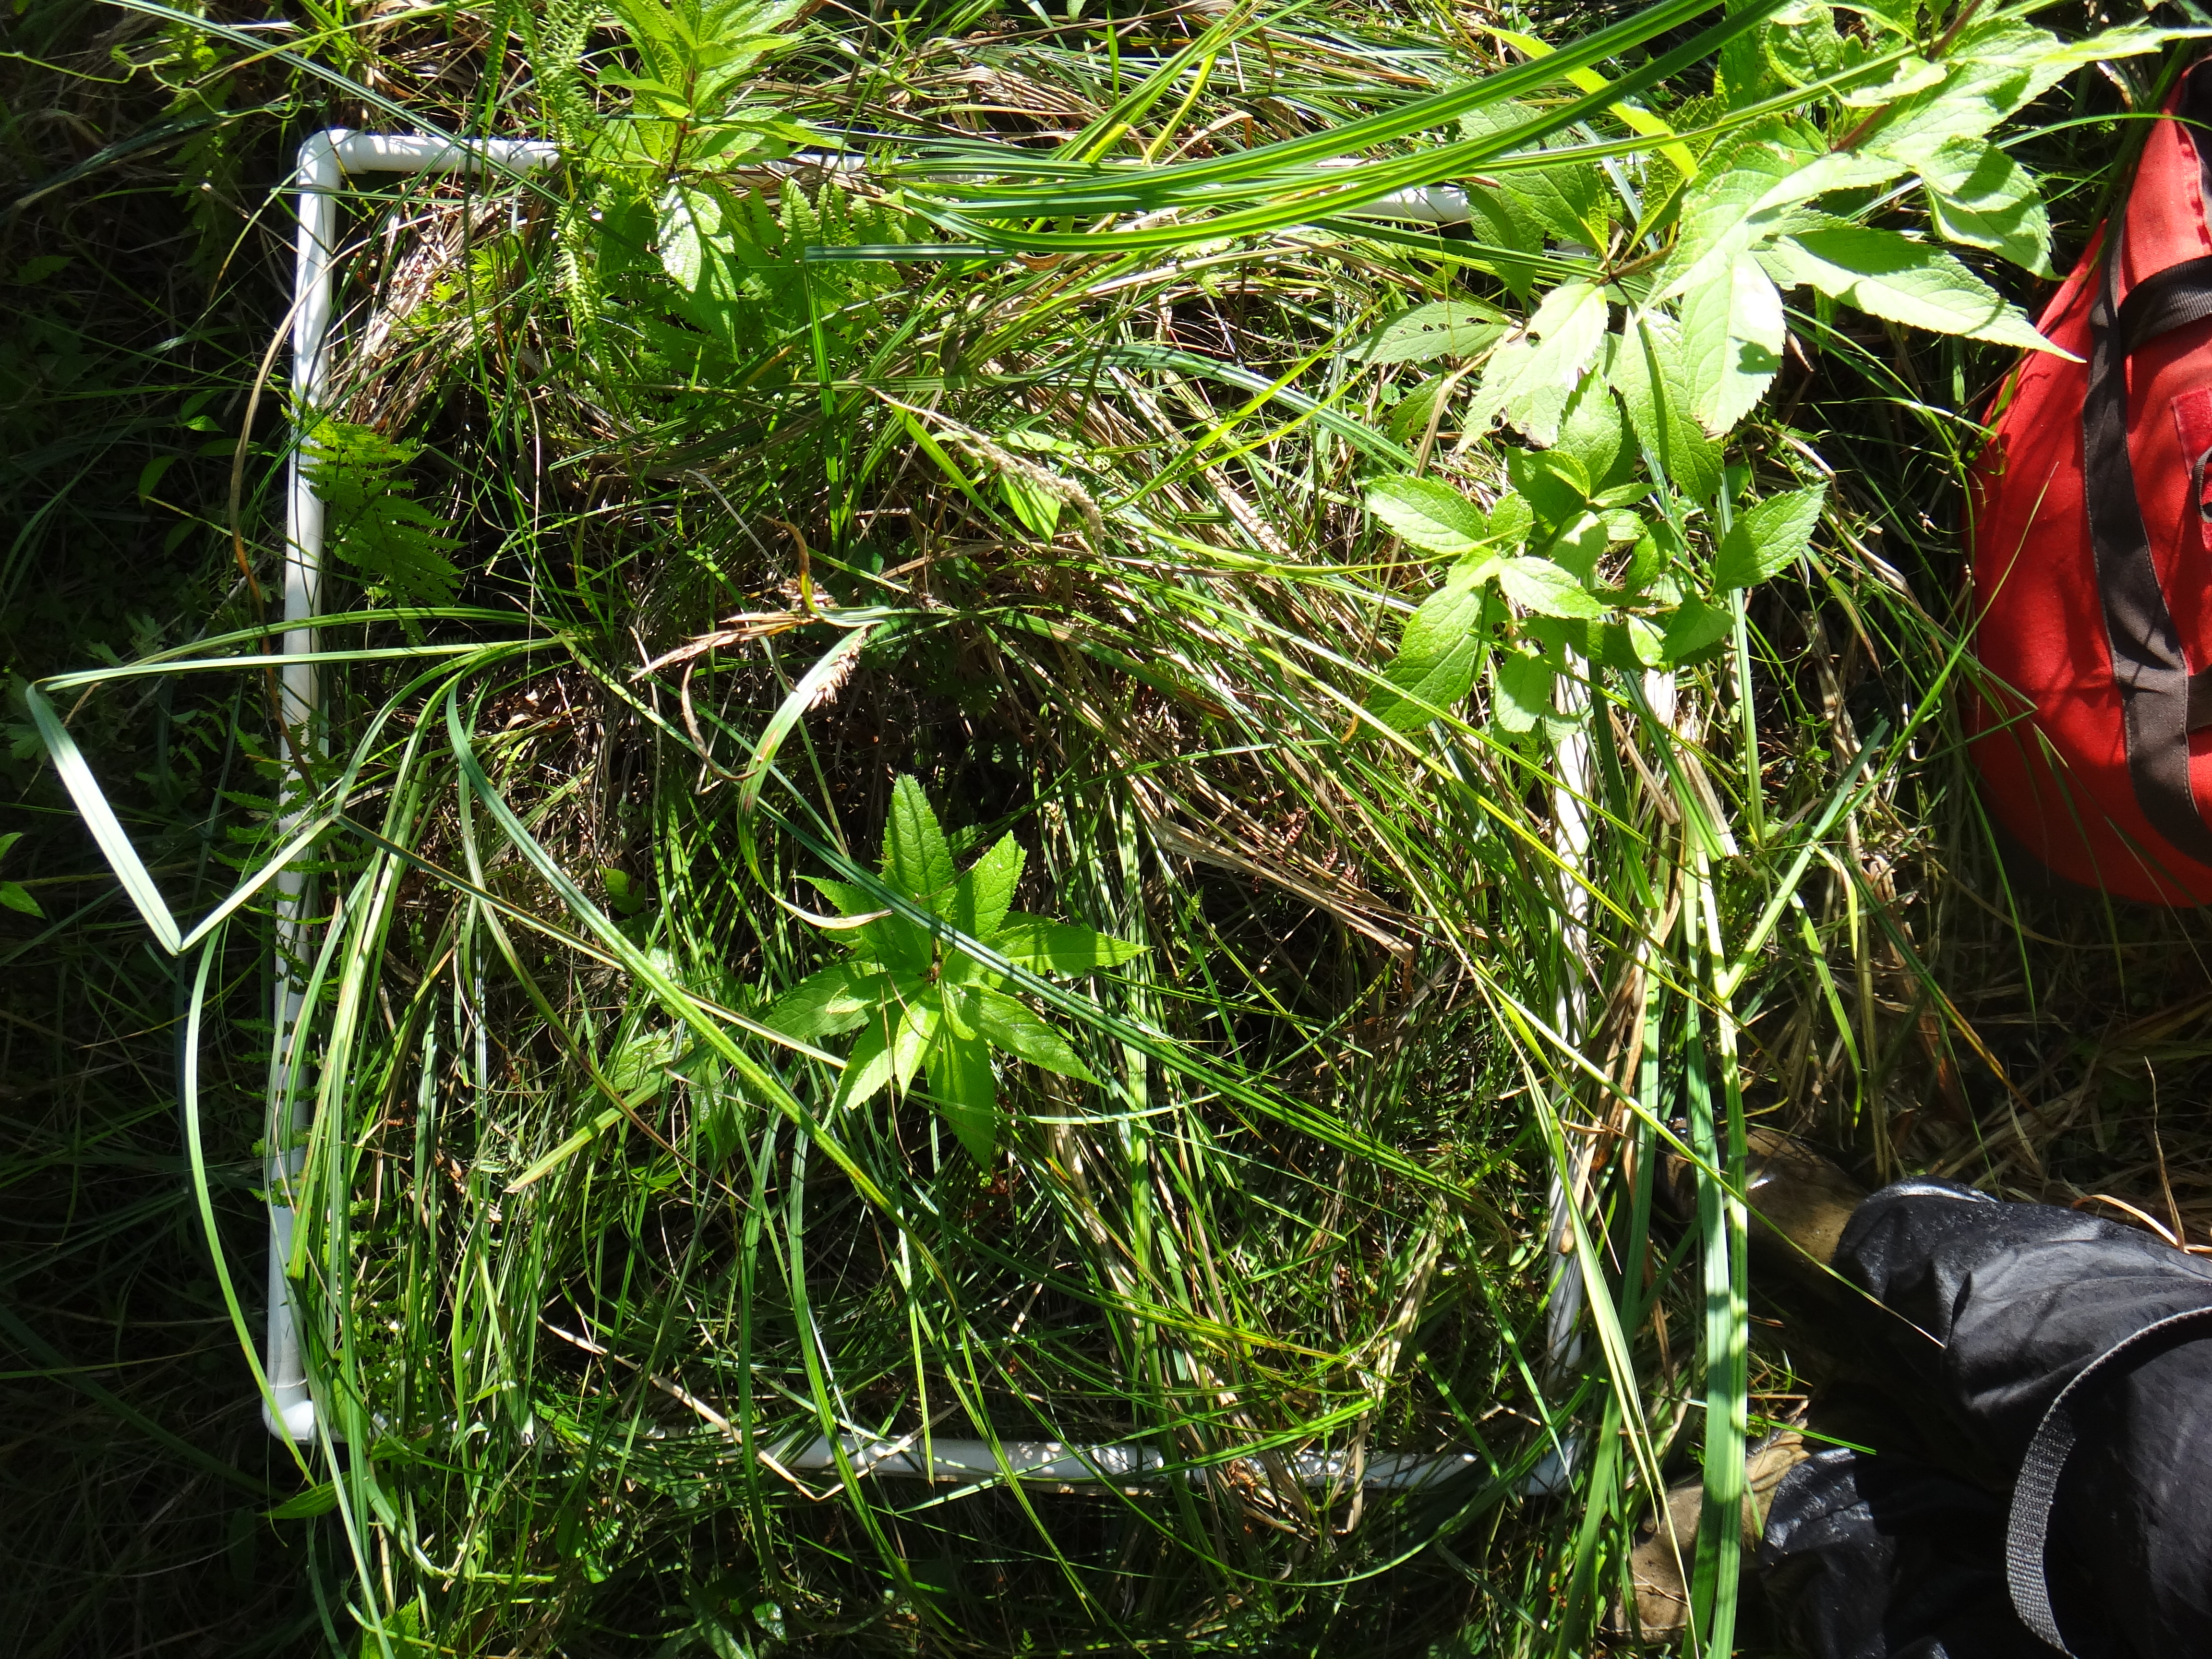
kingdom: Plantae
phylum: Tracheophyta
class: Liliopsida
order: Poales
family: Cyperaceae
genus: Carex
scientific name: Carex lasiocarpa
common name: Slender sedge
